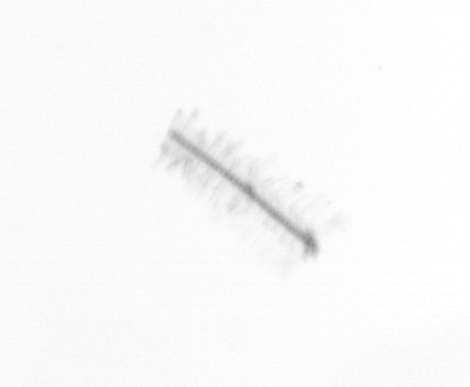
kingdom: Chromista
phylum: Ochrophyta
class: Bacillariophyceae
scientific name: Bacillariophyceae
